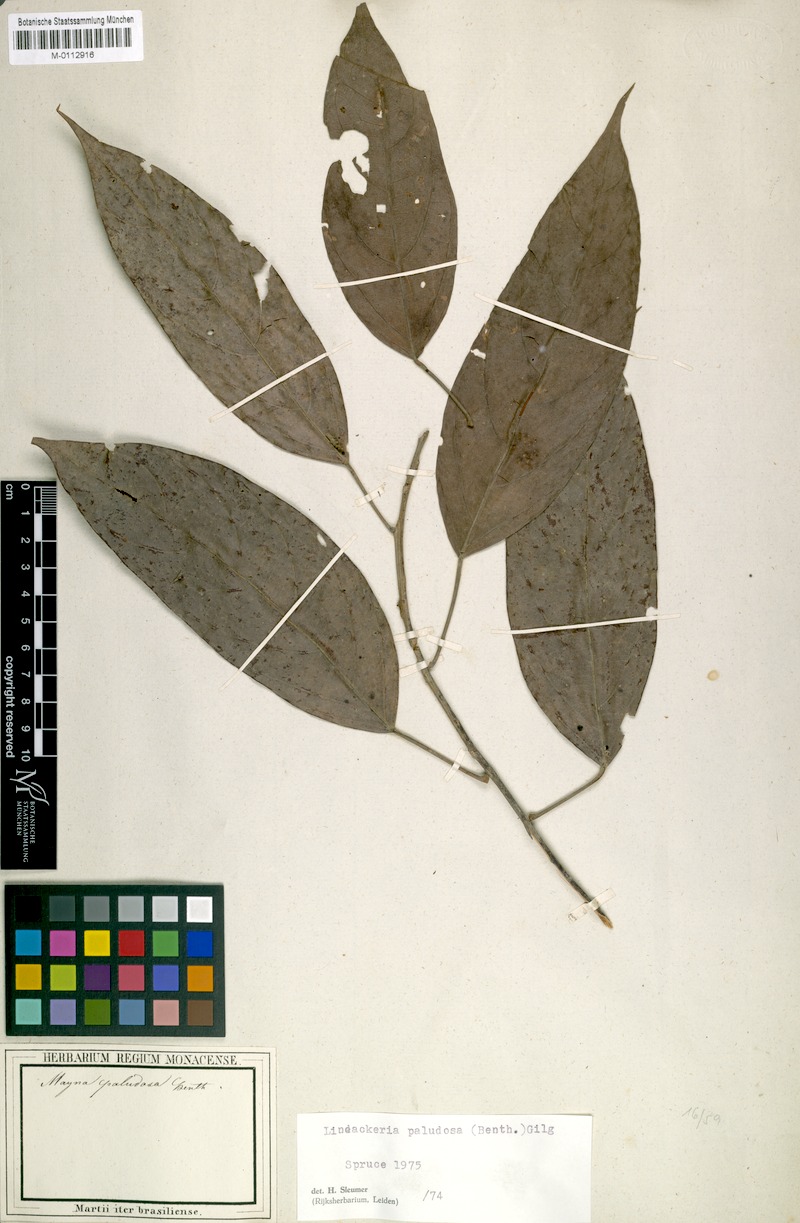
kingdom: Plantae
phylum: Tracheophyta
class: Magnoliopsida
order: Malpighiales
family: Achariaceae
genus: Lindackeria
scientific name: Lindackeria paludosa
